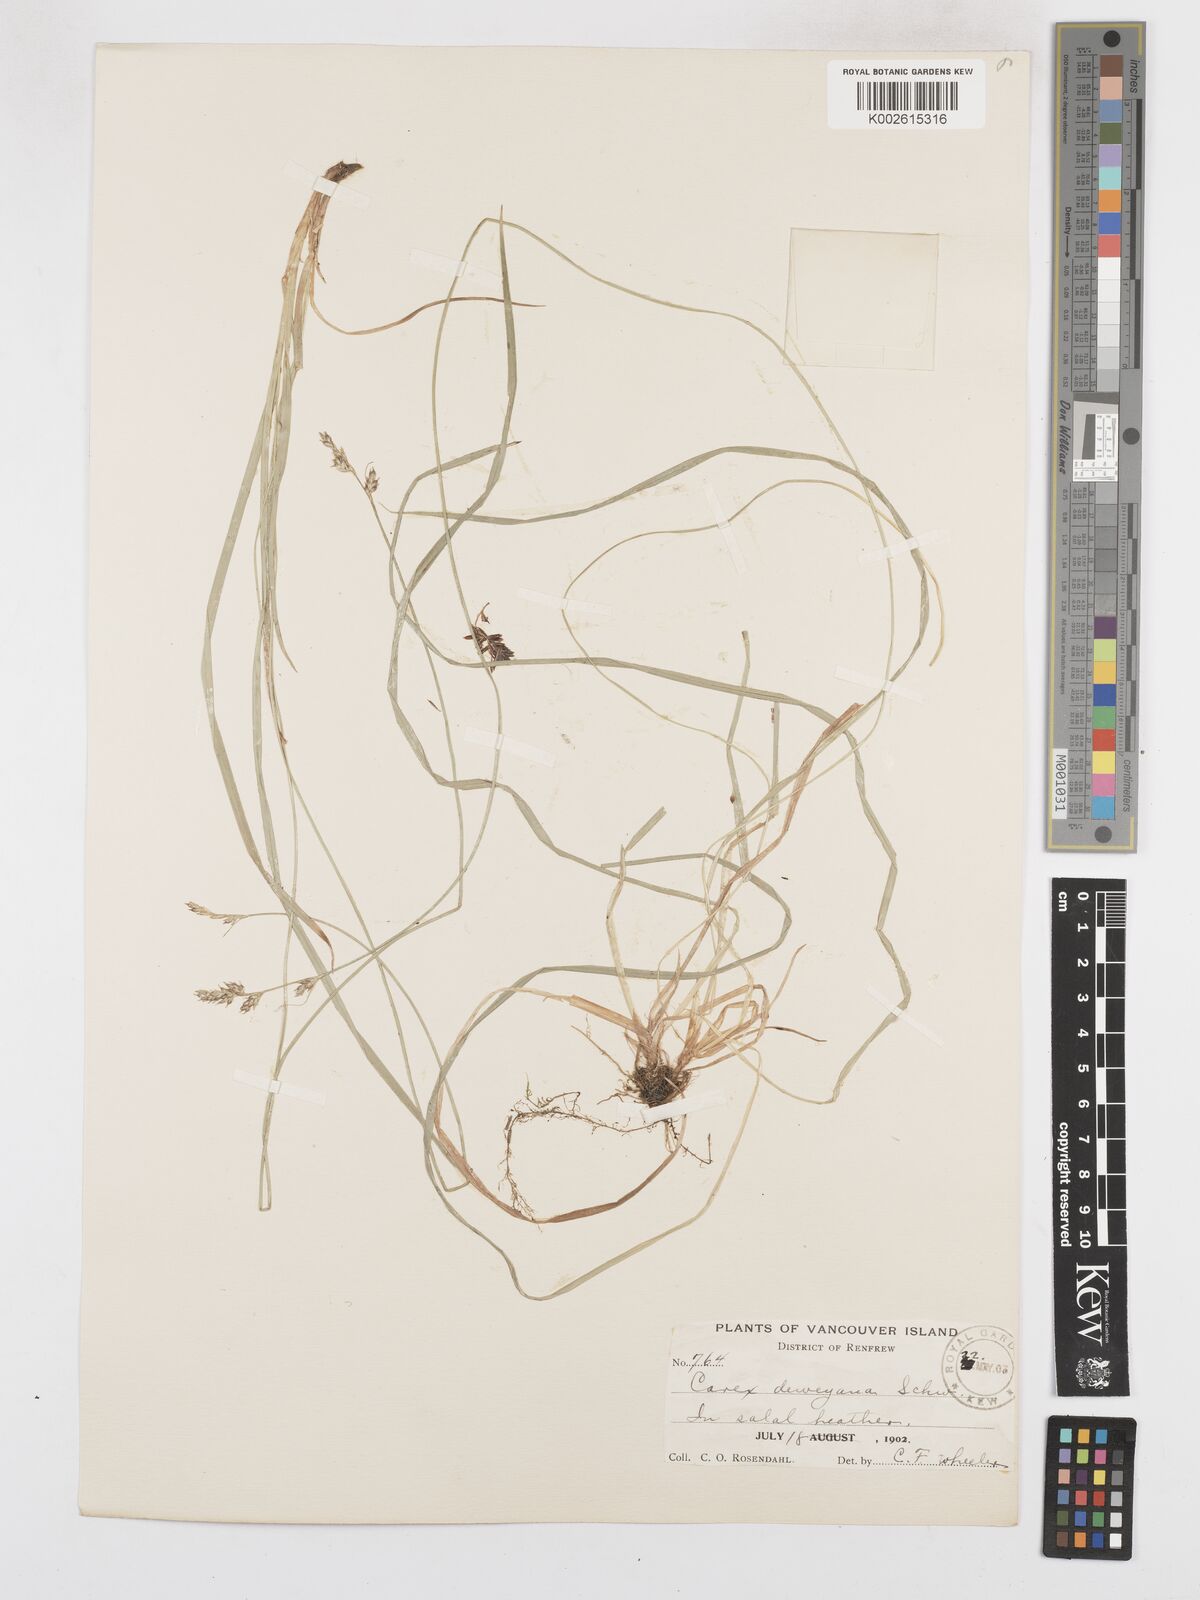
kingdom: Plantae
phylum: Tracheophyta
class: Liliopsida
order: Poales
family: Cyperaceae
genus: Carex
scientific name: Carex deweyana
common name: Dewey's sedge
